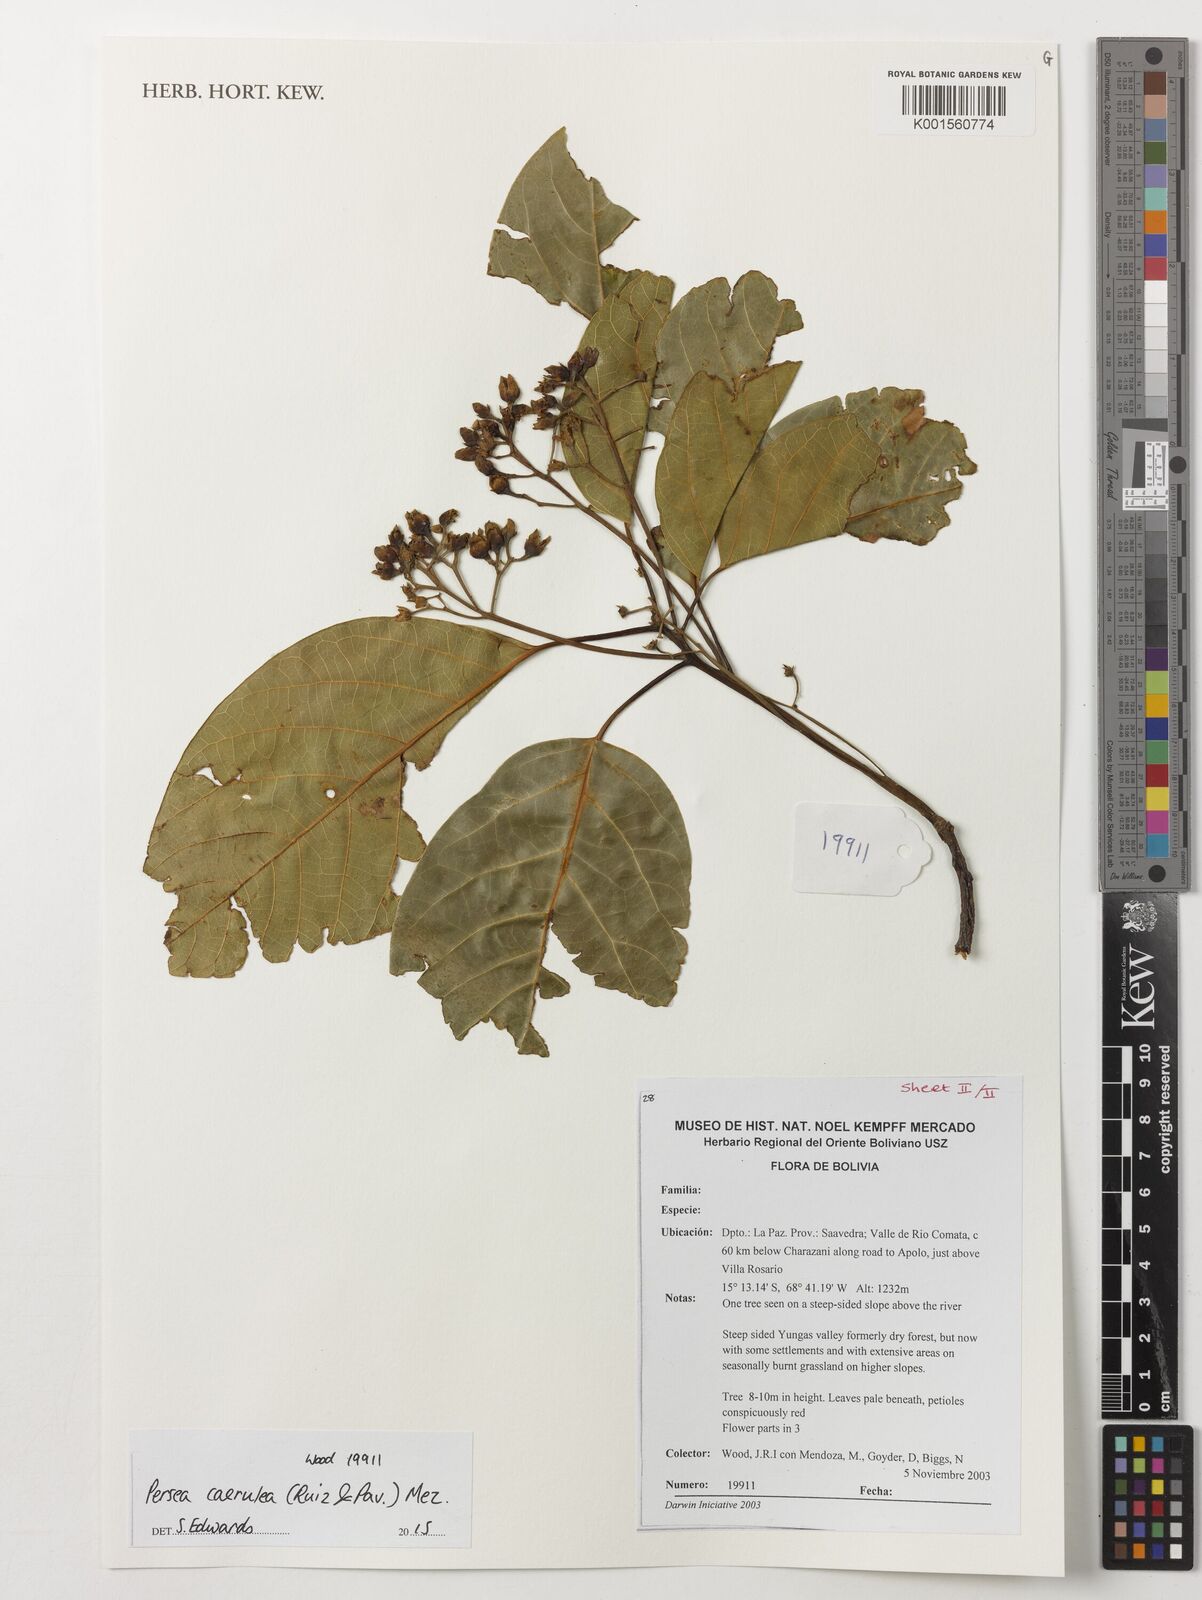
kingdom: Plantae
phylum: Tracheophyta
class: Magnoliopsida
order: Laurales
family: Lauraceae
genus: Persea
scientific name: Persea caerulea
